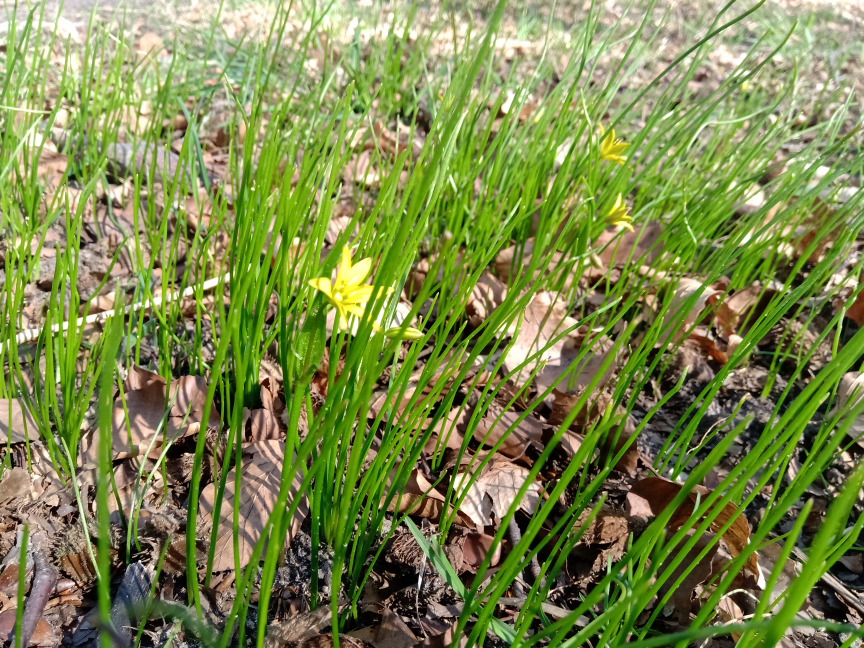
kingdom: Plantae
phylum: Tracheophyta
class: Liliopsida
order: Liliales
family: Liliaceae
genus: Gagea
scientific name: Gagea spathacea
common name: Hylster-guldstjerne
